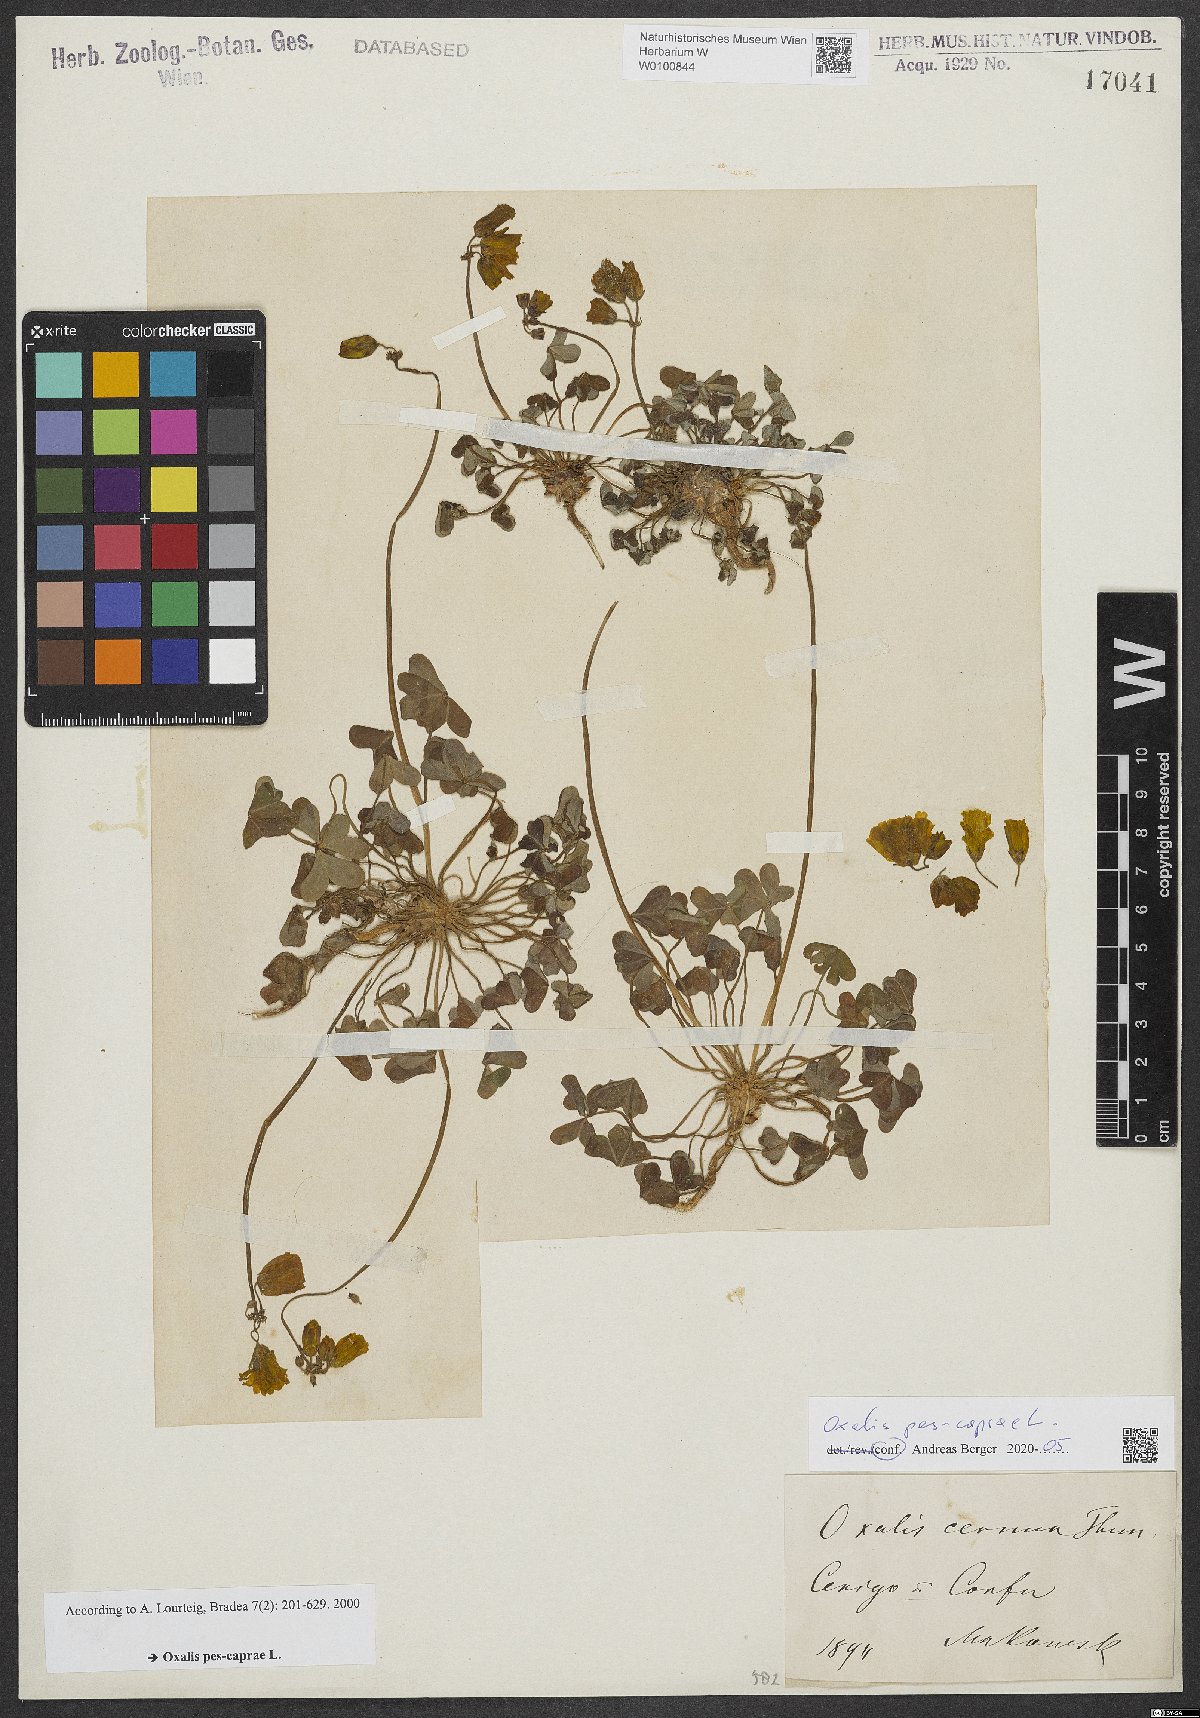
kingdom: Plantae
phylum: Tracheophyta
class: Magnoliopsida
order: Oxalidales
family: Oxalidaceae
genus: Oxalis
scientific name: Oxalis pes-caprae
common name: Bermuda-buttercup
